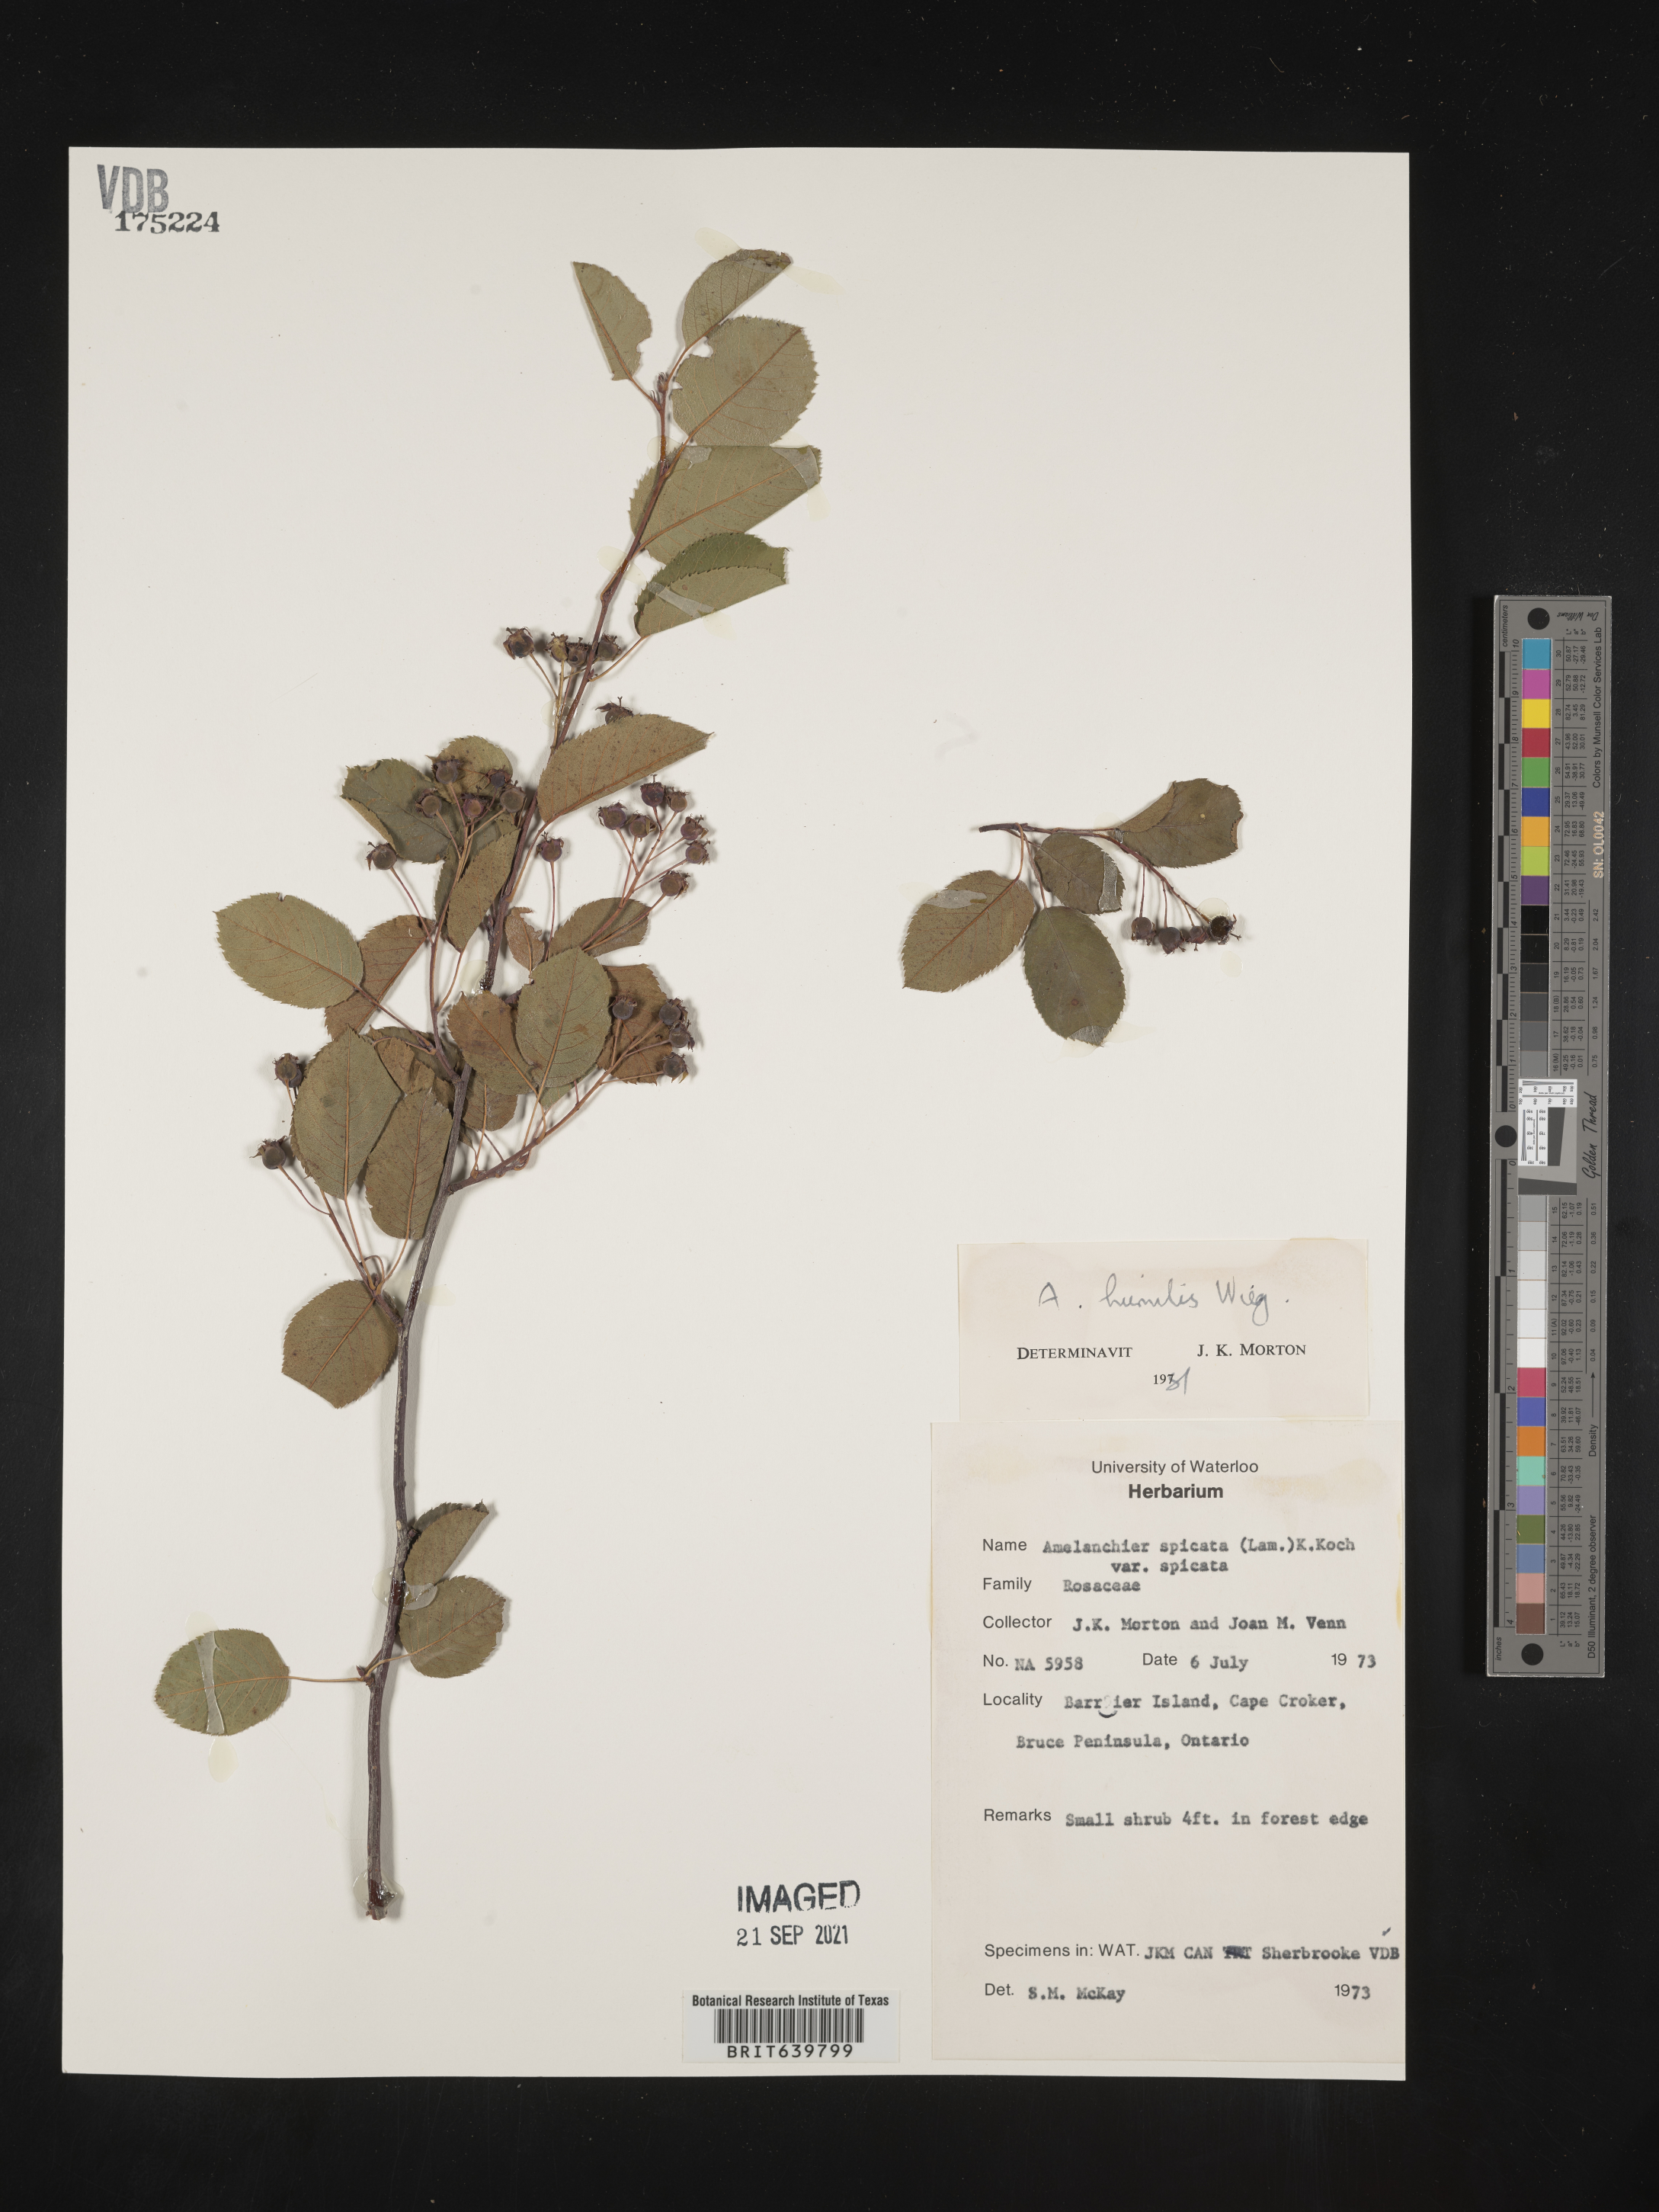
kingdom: Plantae
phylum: Tracheophyta
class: Magnoliopsida
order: Rosales
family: Rosaceae
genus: Amelanchier
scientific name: Amelanchier
